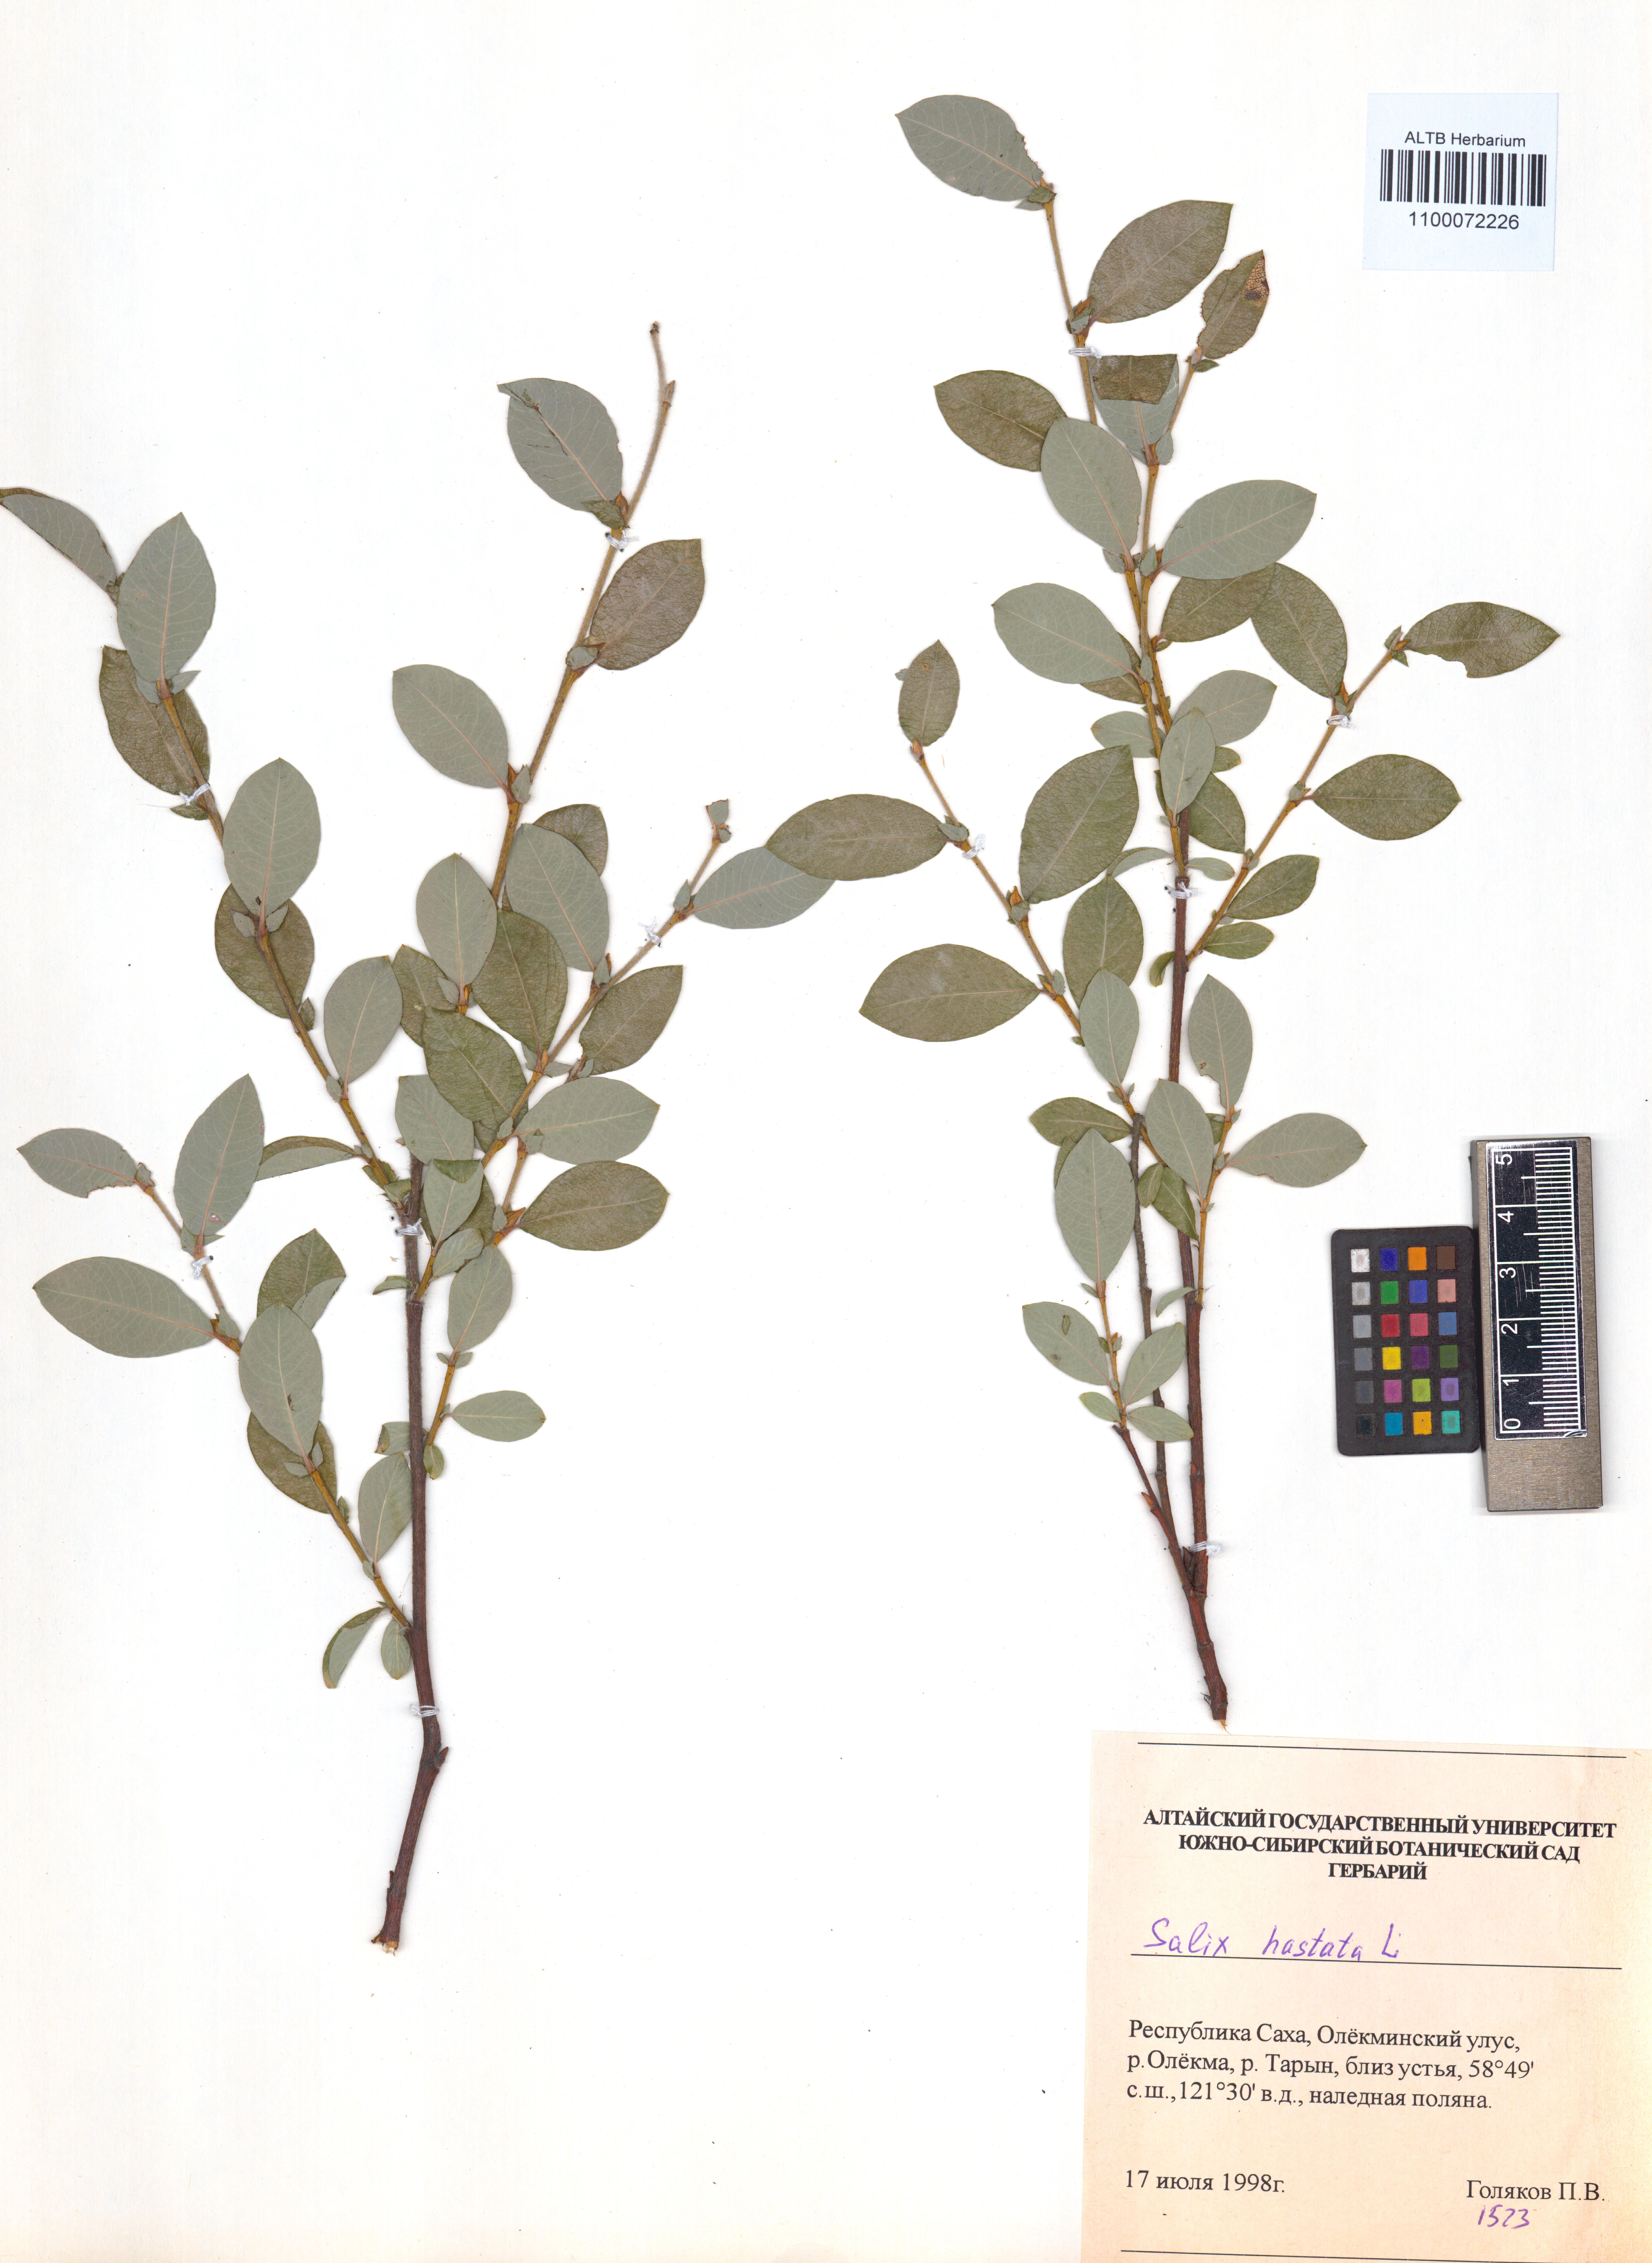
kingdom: Plantae
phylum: Tracheophyta
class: Magnoliopsida
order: Malpighiales
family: Salicaceae
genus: Salix
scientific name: Salix hastata
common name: Halberd willow
